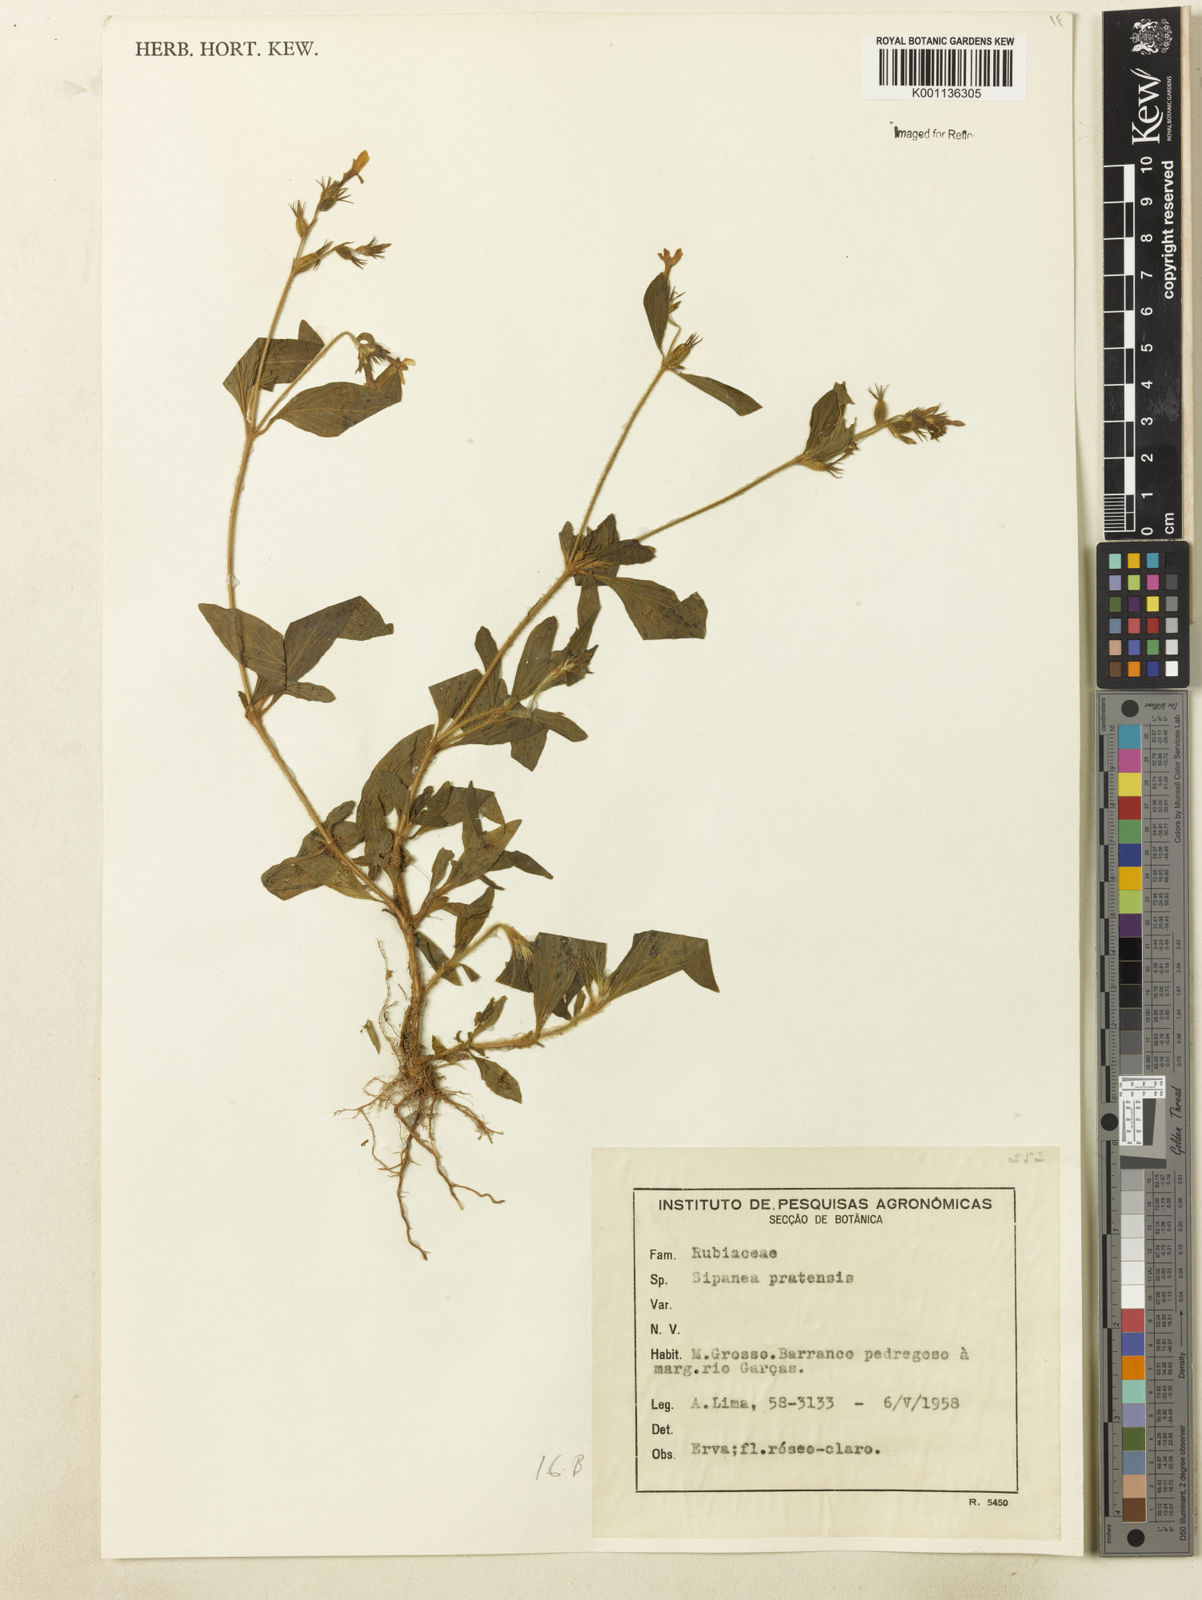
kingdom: Plantae
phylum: Tracheophyta
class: Magnoliopsida
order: Gentianales
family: Rubiaceae
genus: Sipanea
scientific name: Sipanea pratensis
